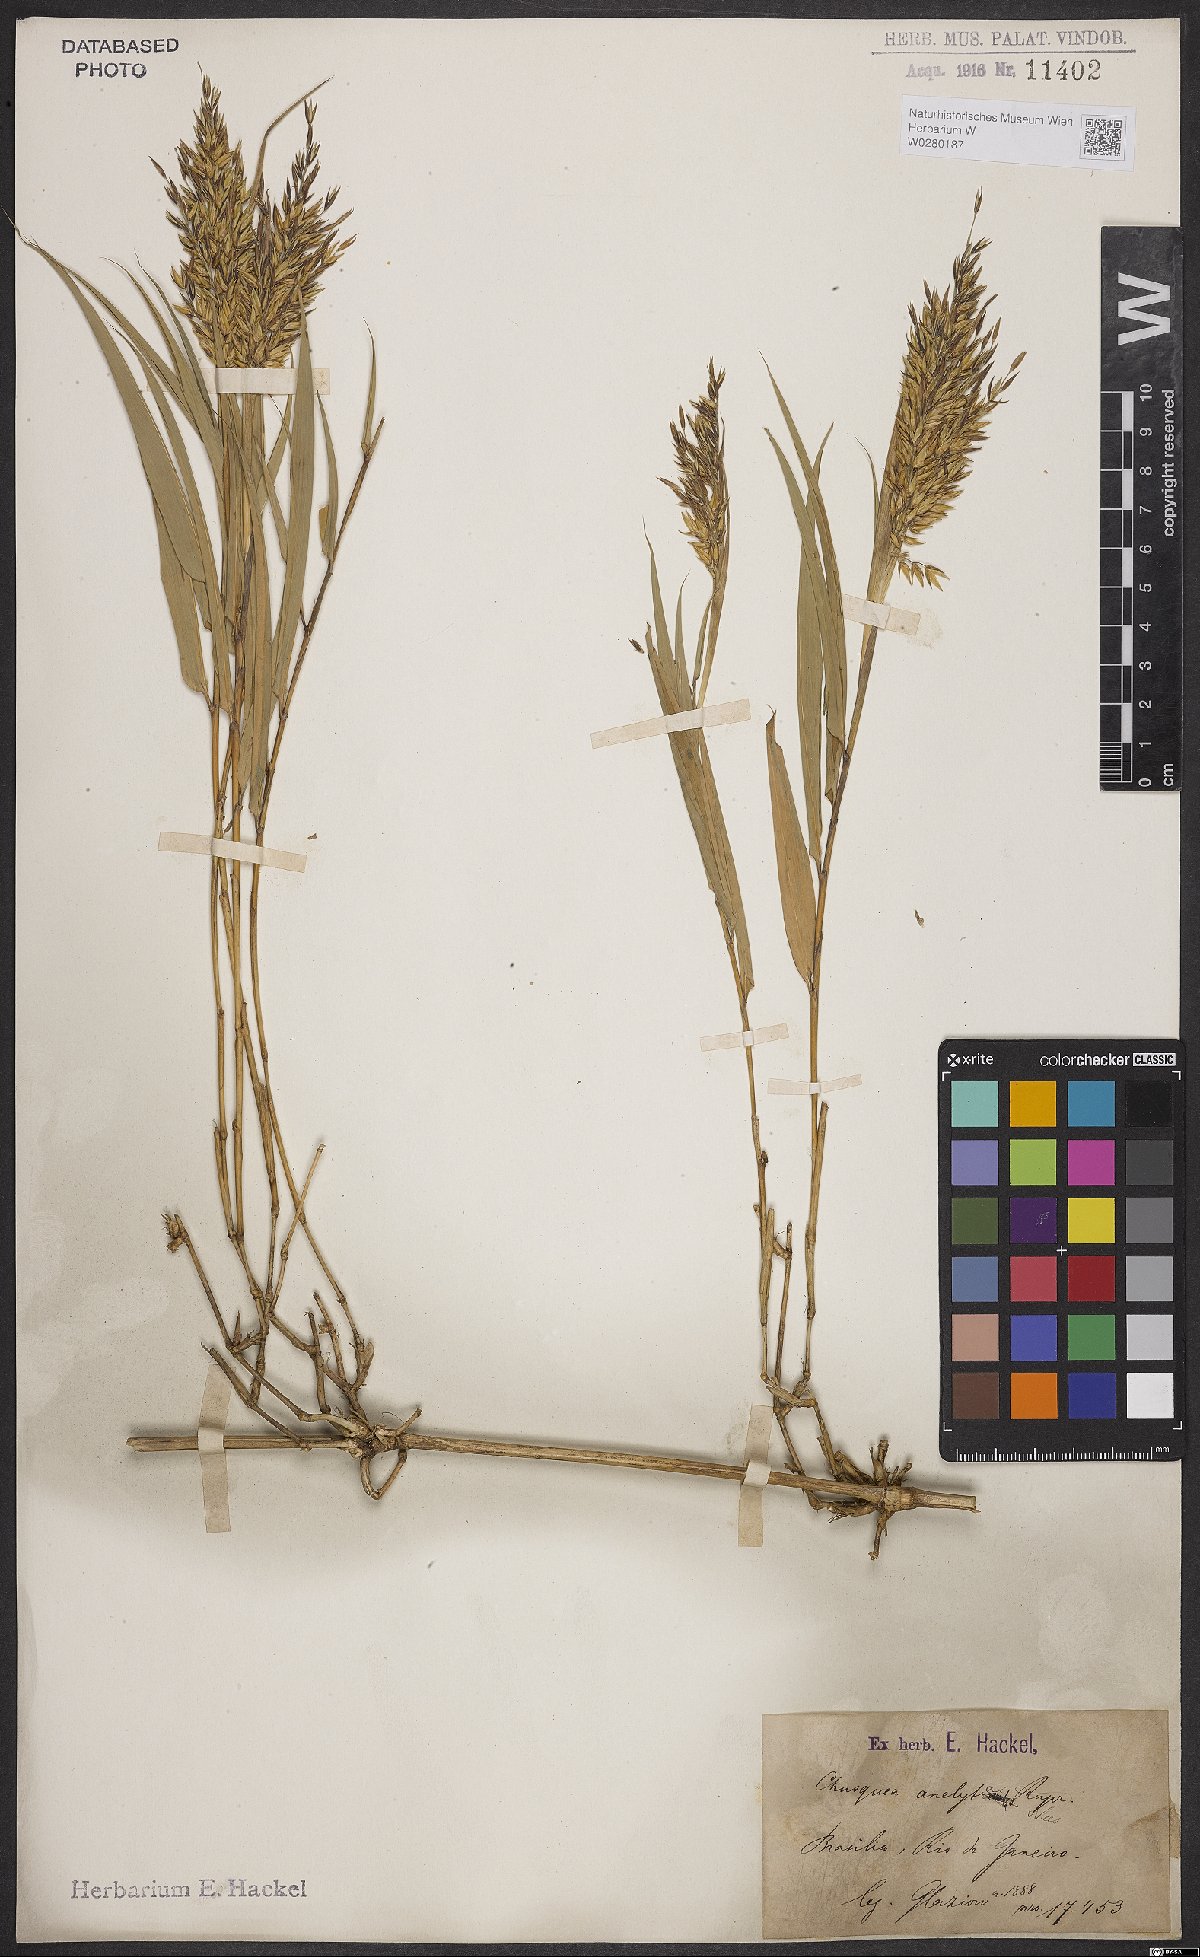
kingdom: Plantae
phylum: Tracheophyta
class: Liliopsida
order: Poales
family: Poaceae
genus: Chusquea
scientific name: Chusquea anelythra
